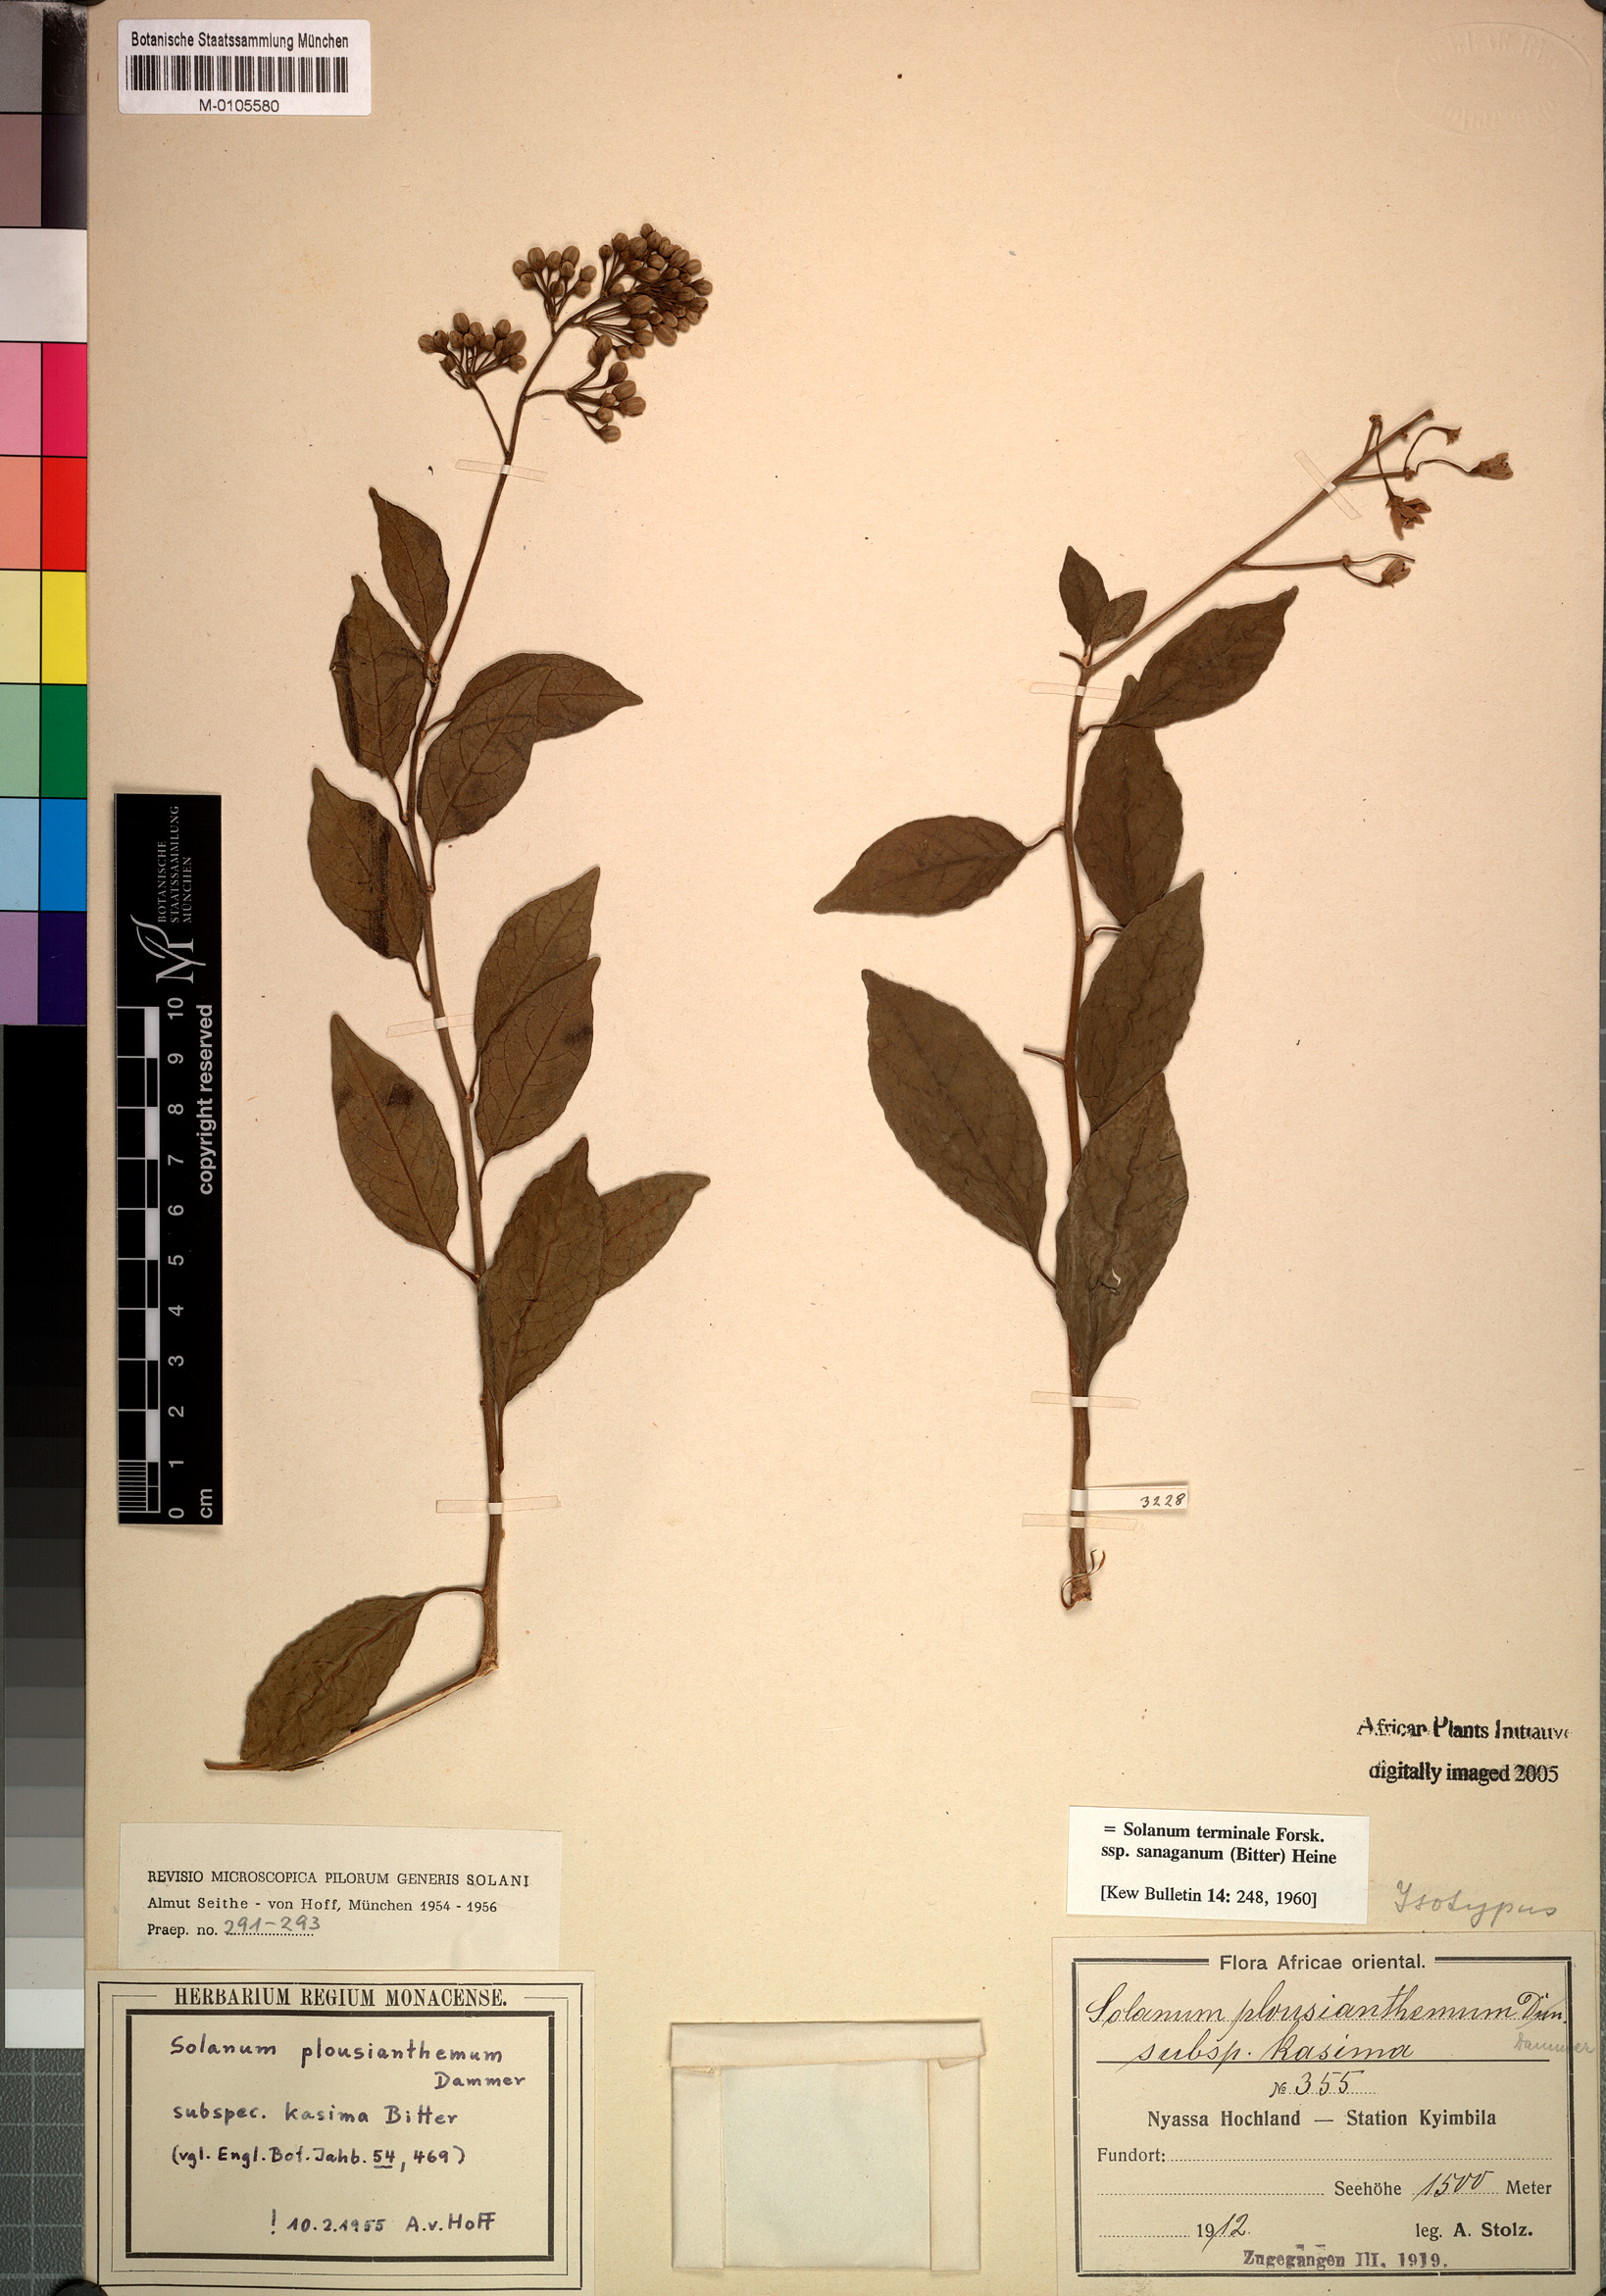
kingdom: Plantae
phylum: Tracheophyta
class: Magnoliopsida
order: Solanales
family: Solanaceae
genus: Solanum
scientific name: Solanum terminale
